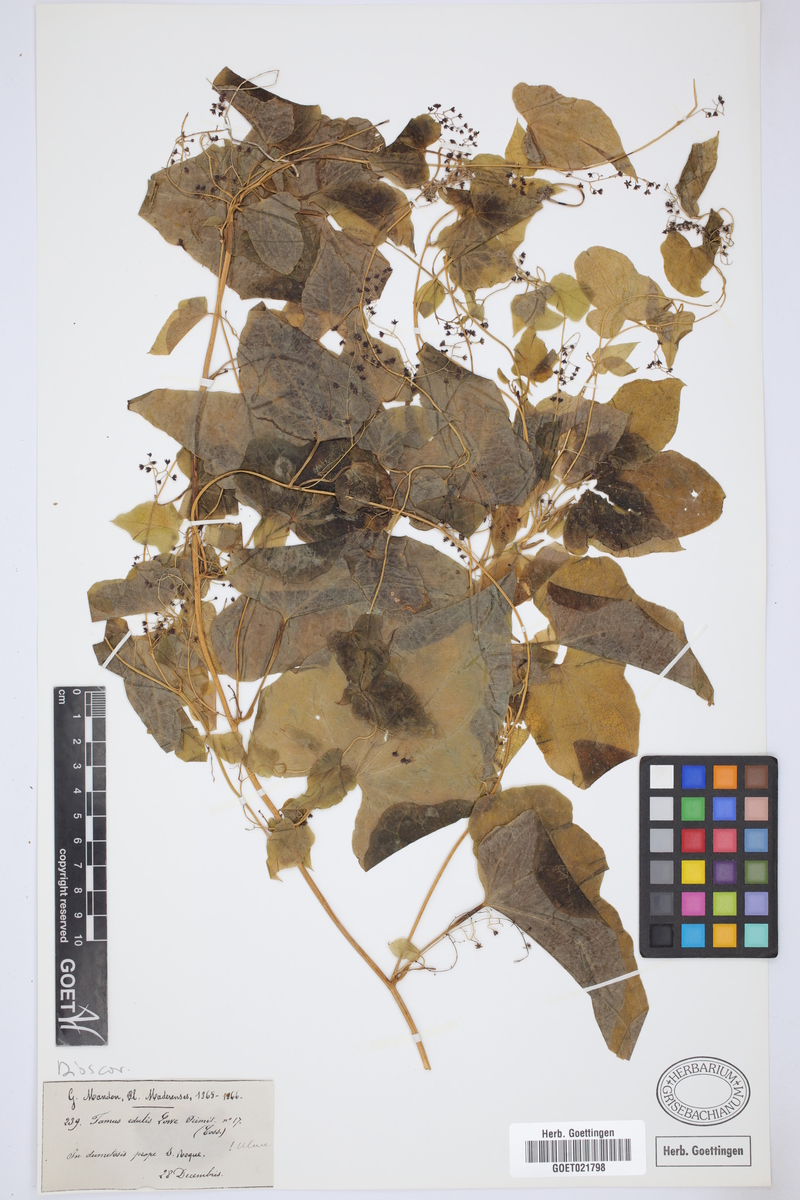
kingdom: Plantae
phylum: Tracheophyta
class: Liliopsida
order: Dioscoreales
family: Dioscoreaceae
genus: Dioscorea
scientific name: Dioscorea communis
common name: Black-bindweed
